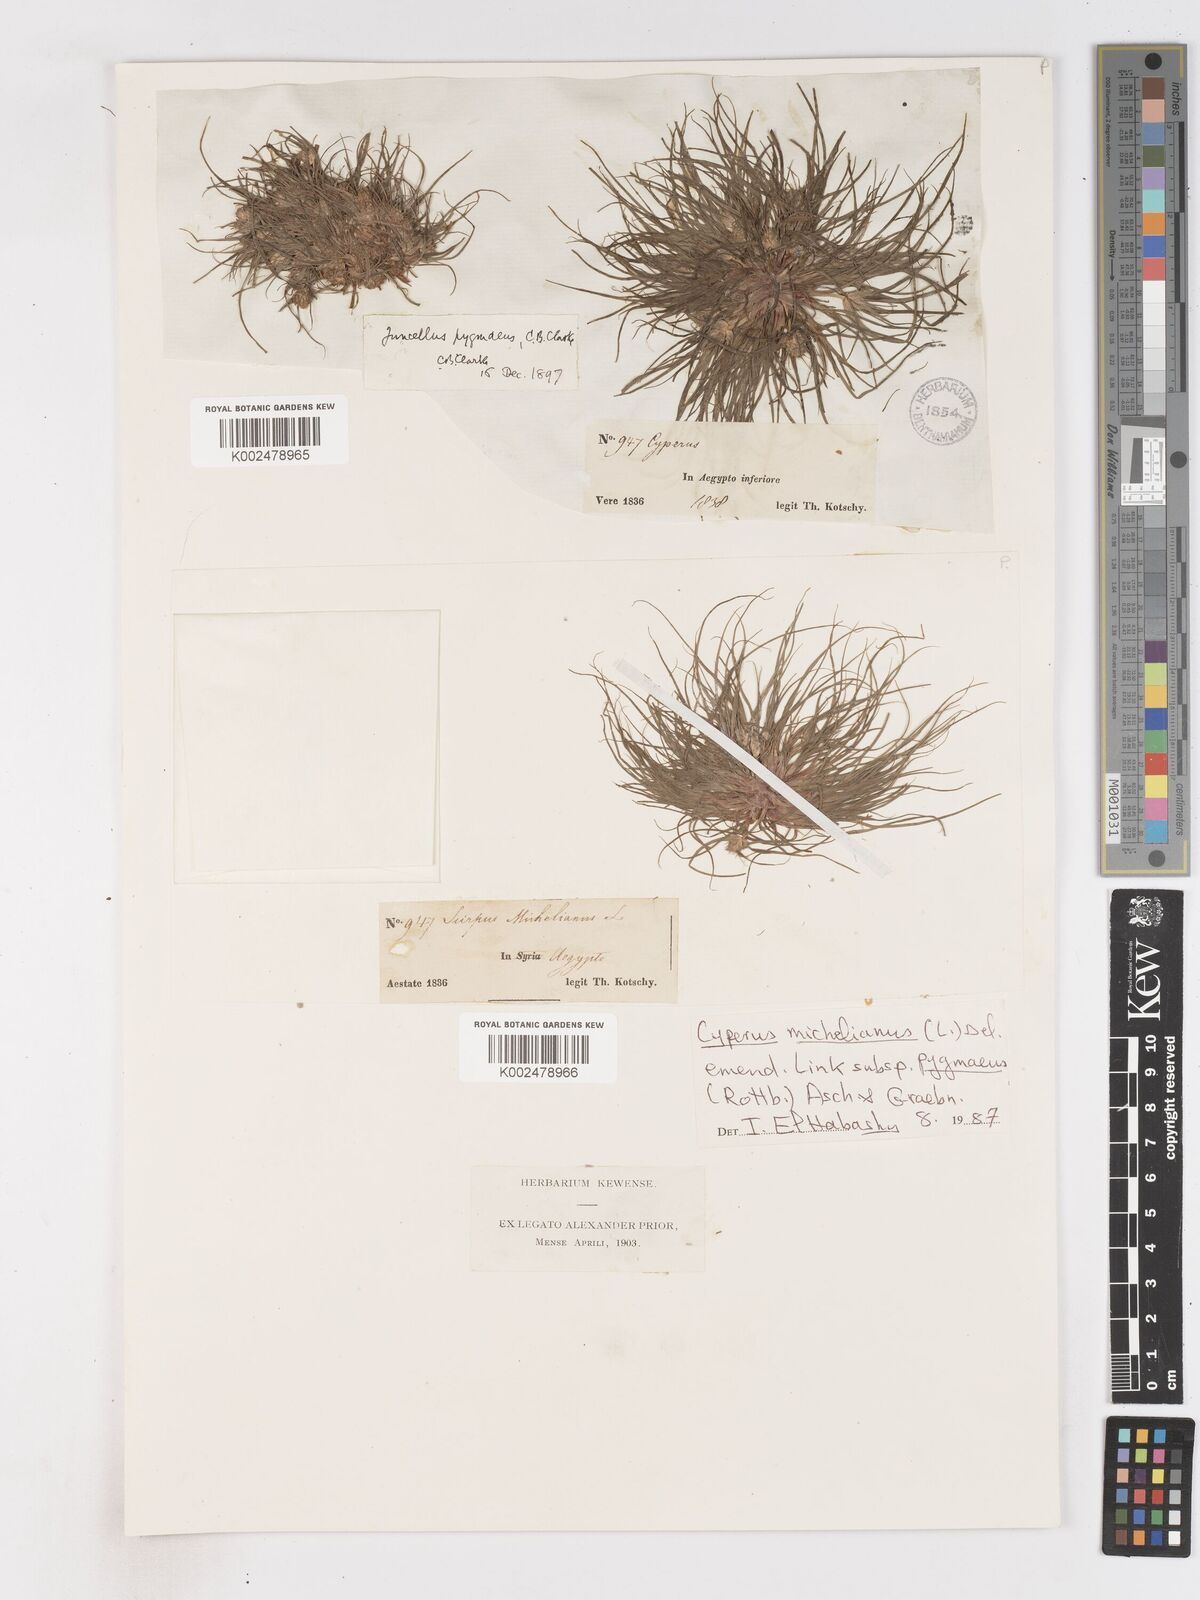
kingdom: Plantae
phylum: Tracheophyta
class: Liliopsida
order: Poales
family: Cyperaceae
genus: Cyperus
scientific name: Cyperus michelianus
